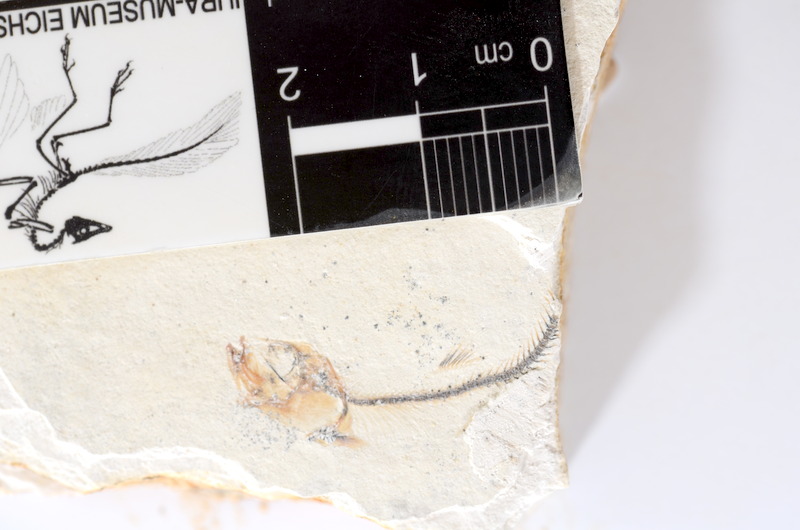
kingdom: Animalia
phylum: Chordata
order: Salmoniformes
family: Orthogonikleithridae
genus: Orthogonikleithrus
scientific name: Orthogonikleithrus hoelli
